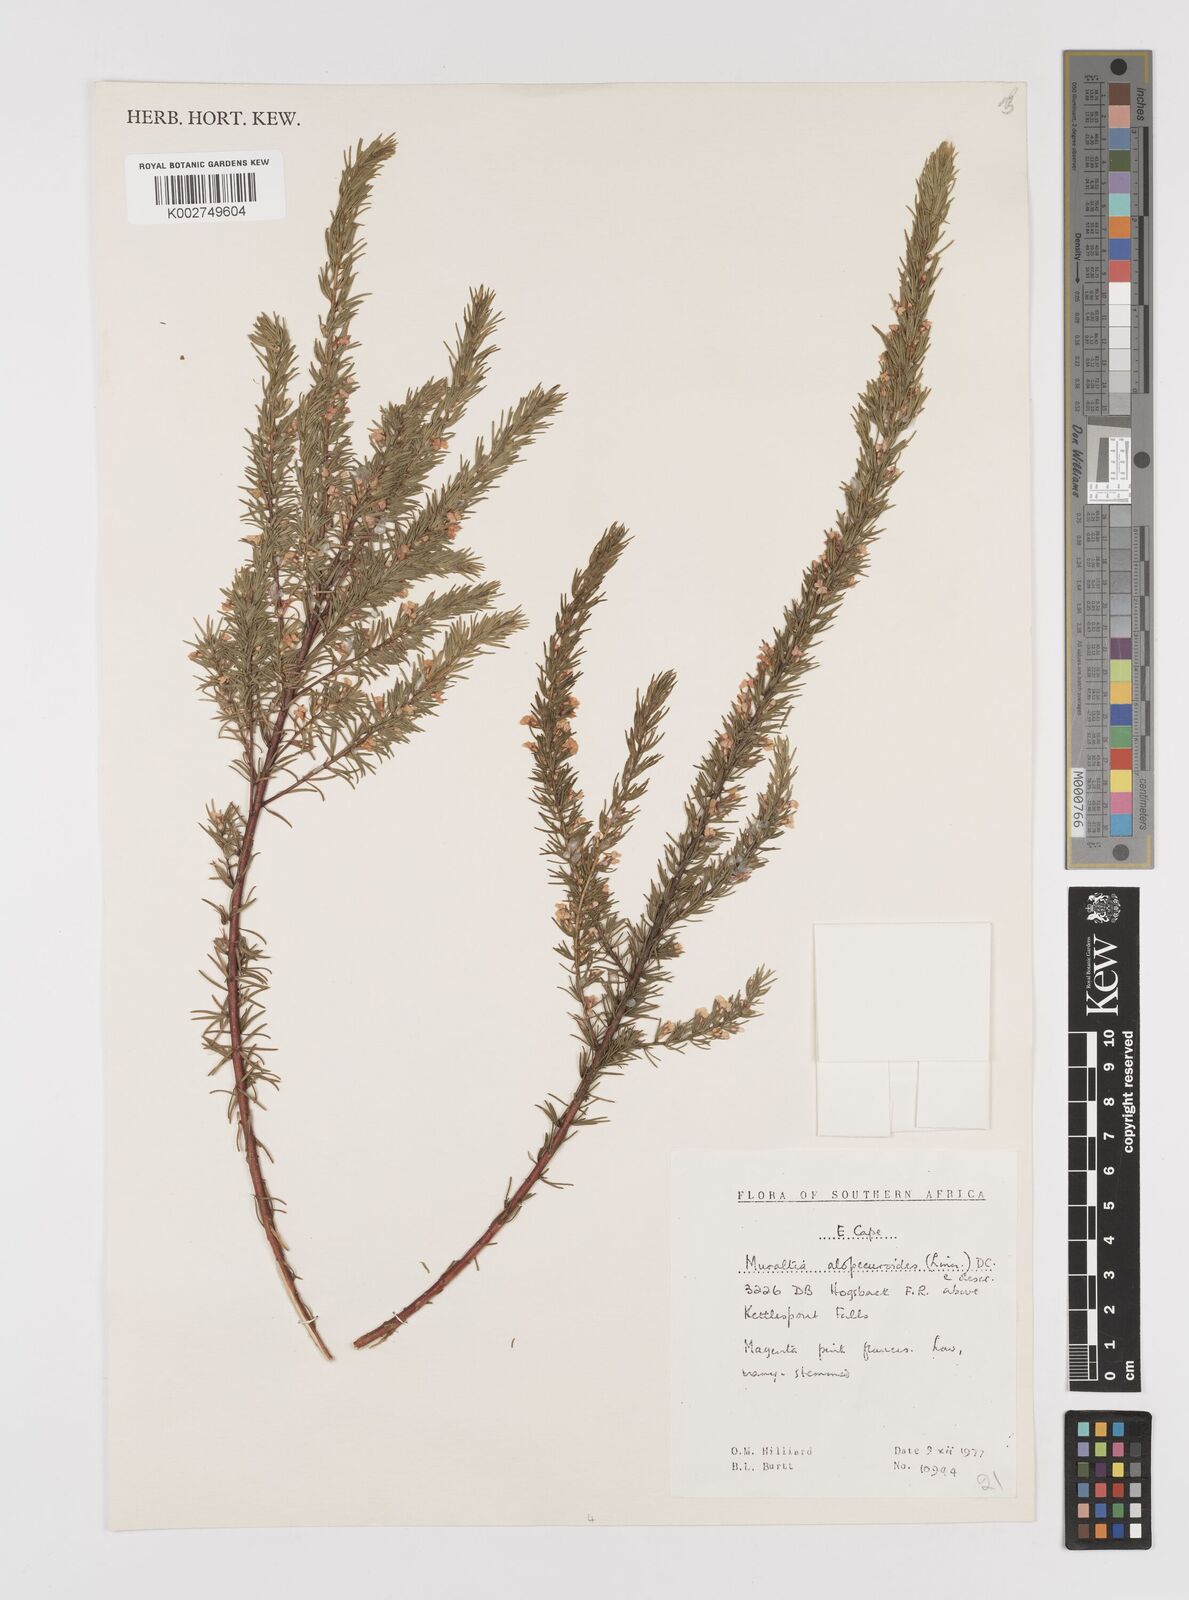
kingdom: Plantae
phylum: Tracheophyta
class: Magnoliopsida
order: Fabales
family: Polygalaceae
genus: Muraltia
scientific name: Muraltia alopecuroides
